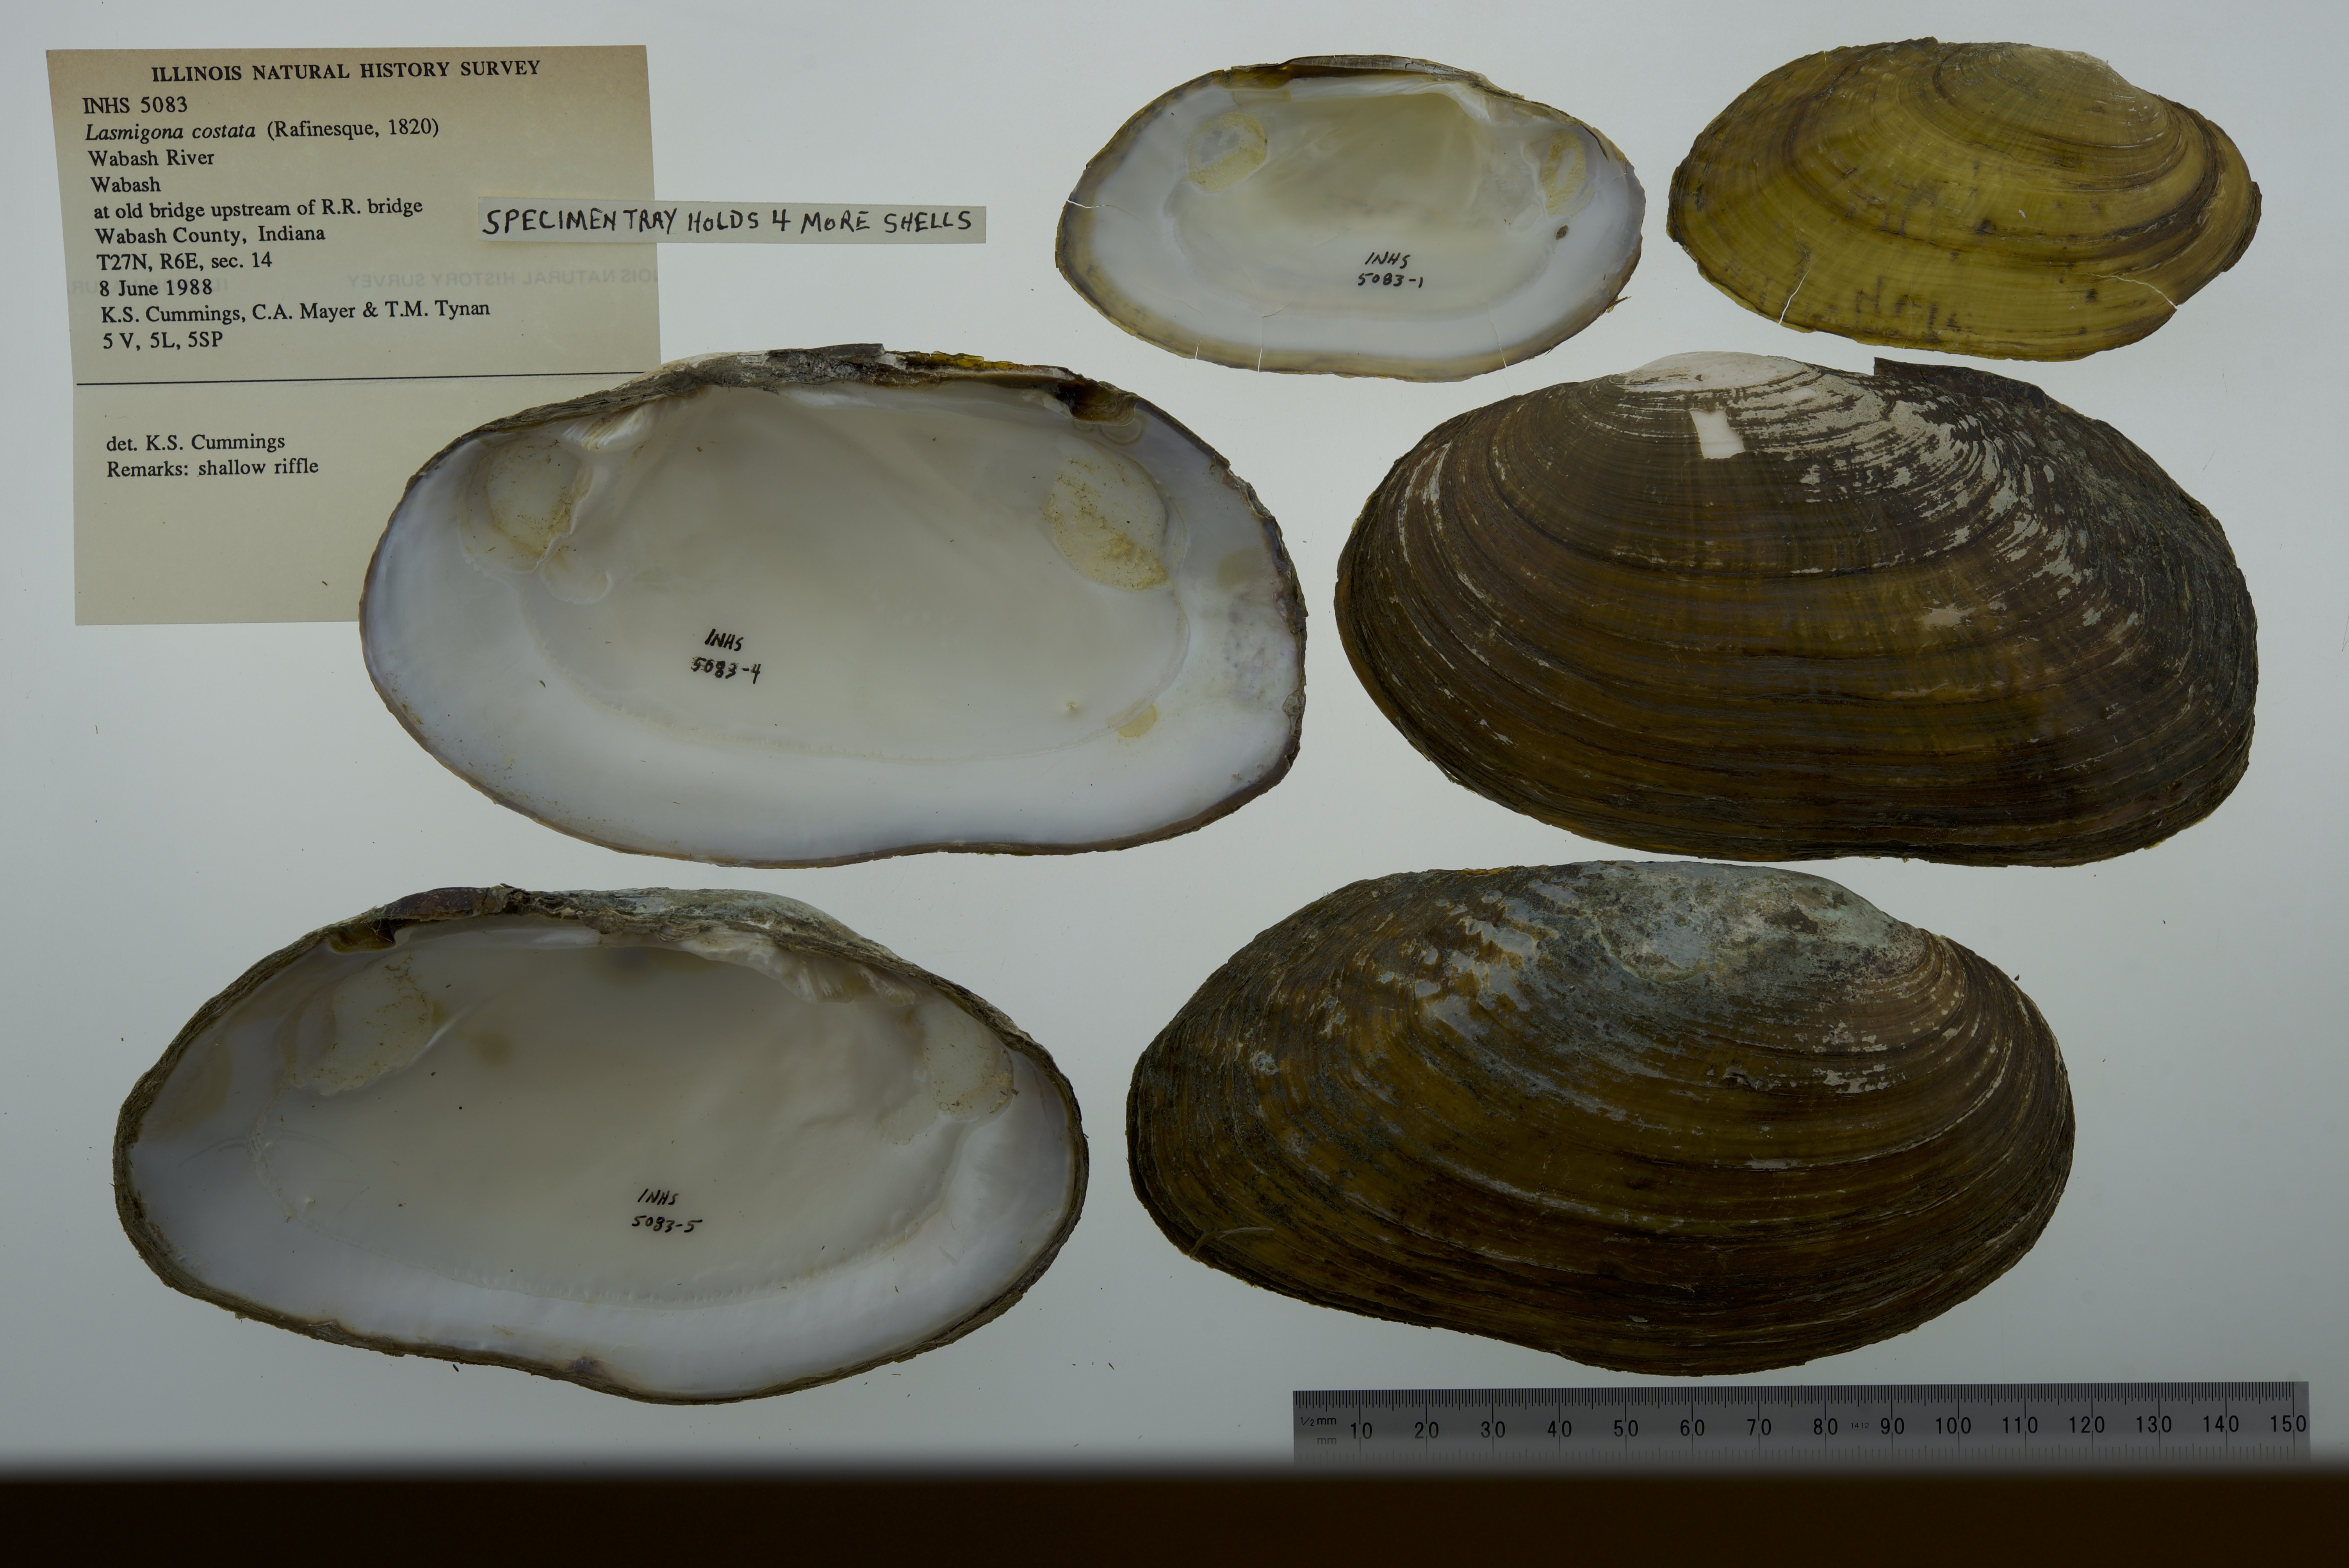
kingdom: Animalia
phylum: Mollusca
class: Bivalvia
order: Unionida
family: Unionidae
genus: Lasmigona
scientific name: Lasmigona costata
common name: Flutedshell
